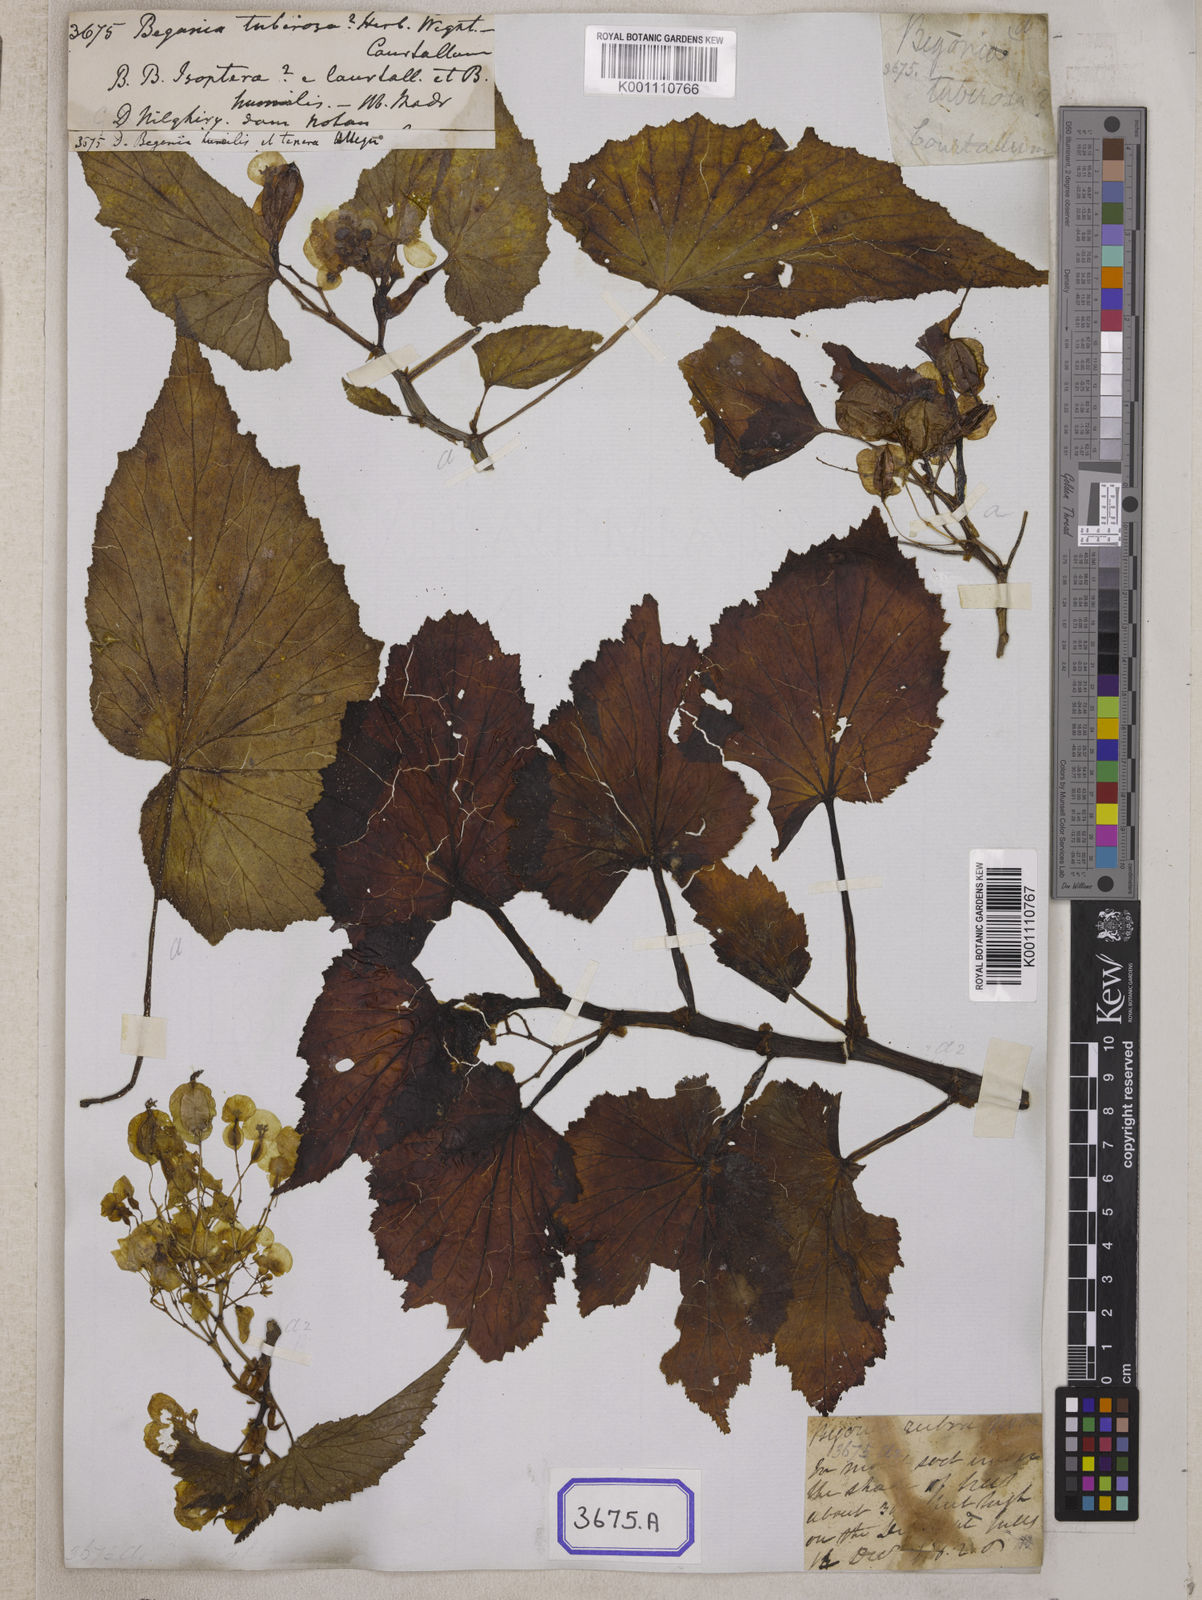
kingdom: Plantae
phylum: Tracheophyta
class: Magnoliopsida
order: Cucurbitales
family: Begoniaceae
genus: Begonia
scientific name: Begonia
